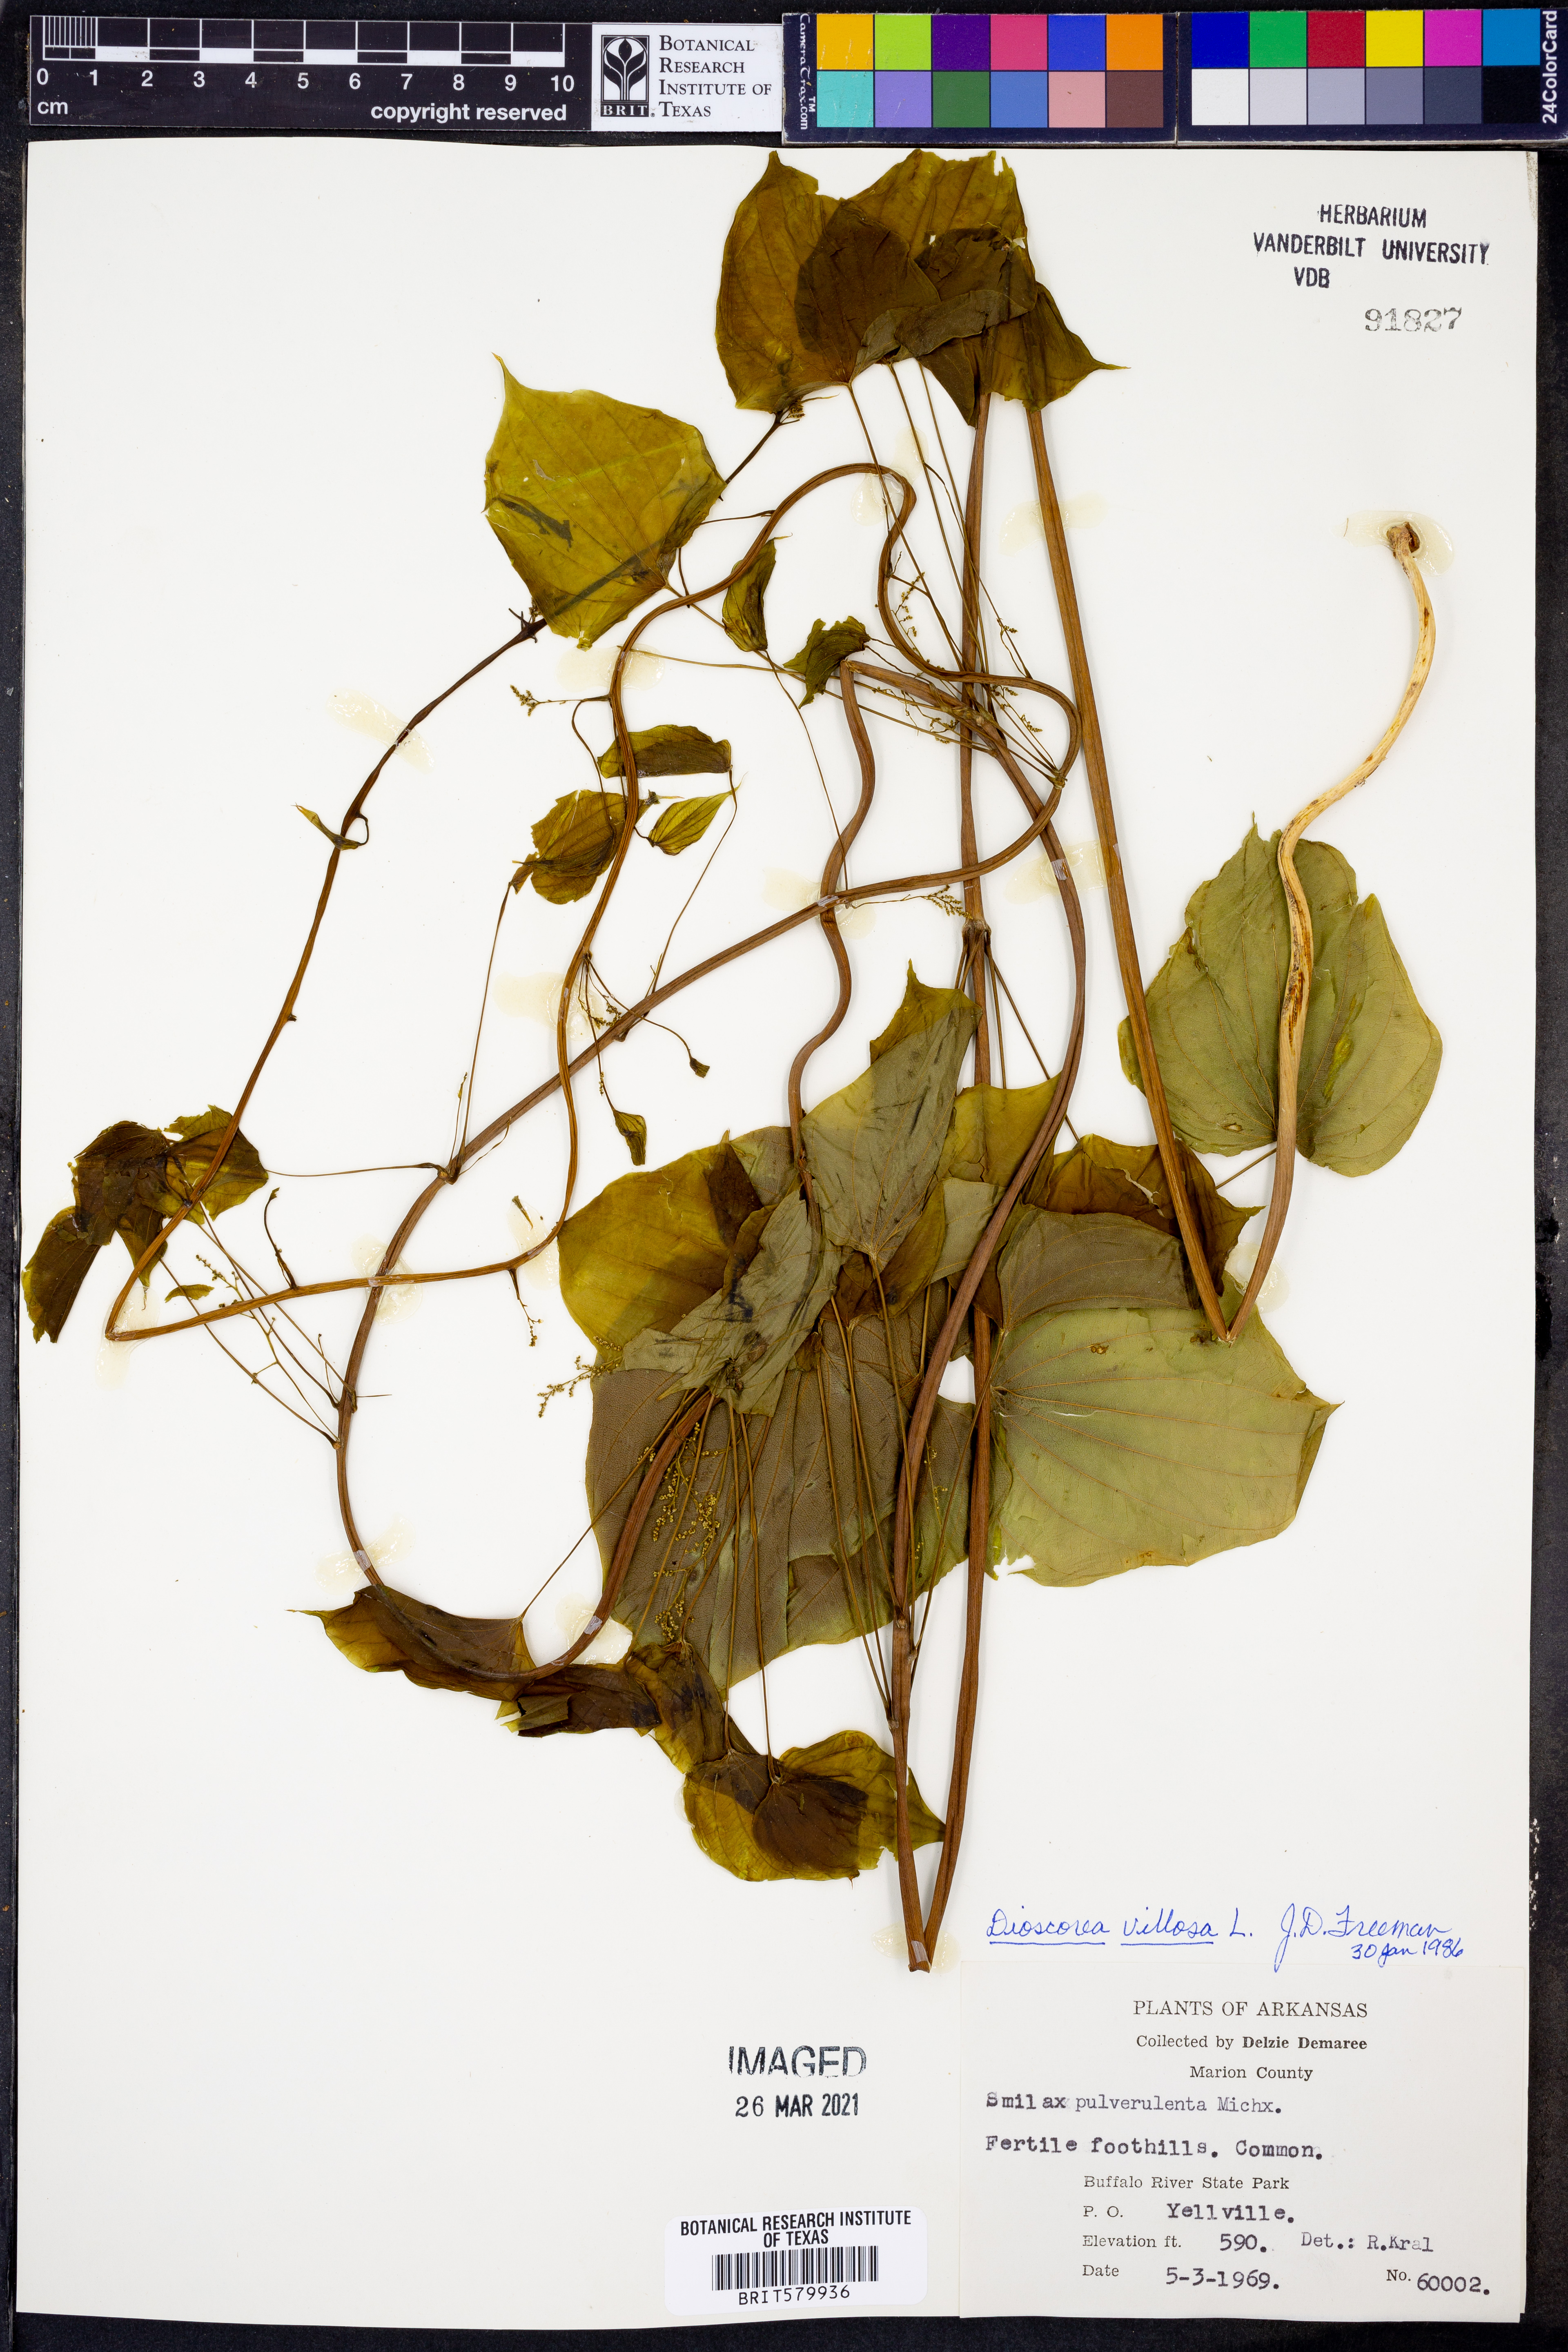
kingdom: Plantae
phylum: Tracheophyta
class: Liliopsida
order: Dioscoreales
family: Dioscoreaceae
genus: Dioscorea
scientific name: Dioscorea villosa
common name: Wild yam
